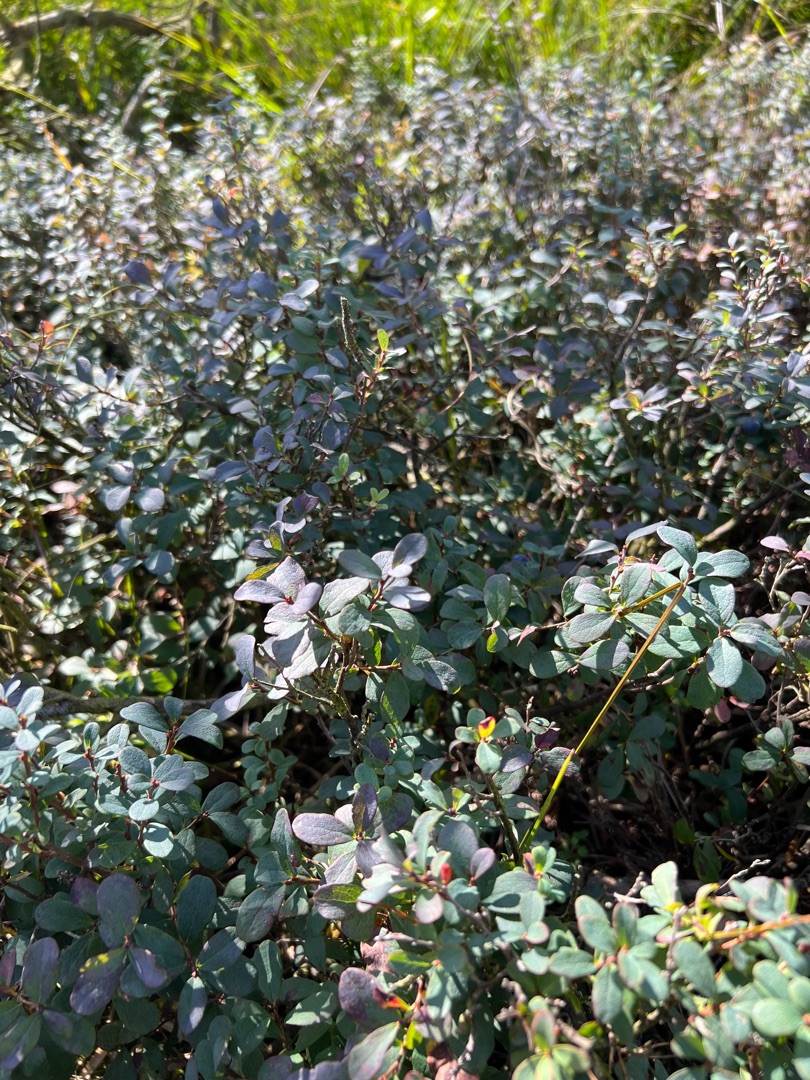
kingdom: Plantae
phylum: Tracheophyta
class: Magnoliopsida
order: Ericales
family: Ericaceae
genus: Vaccinium
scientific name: Vaccinium uliginosum
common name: Mose-bølle
